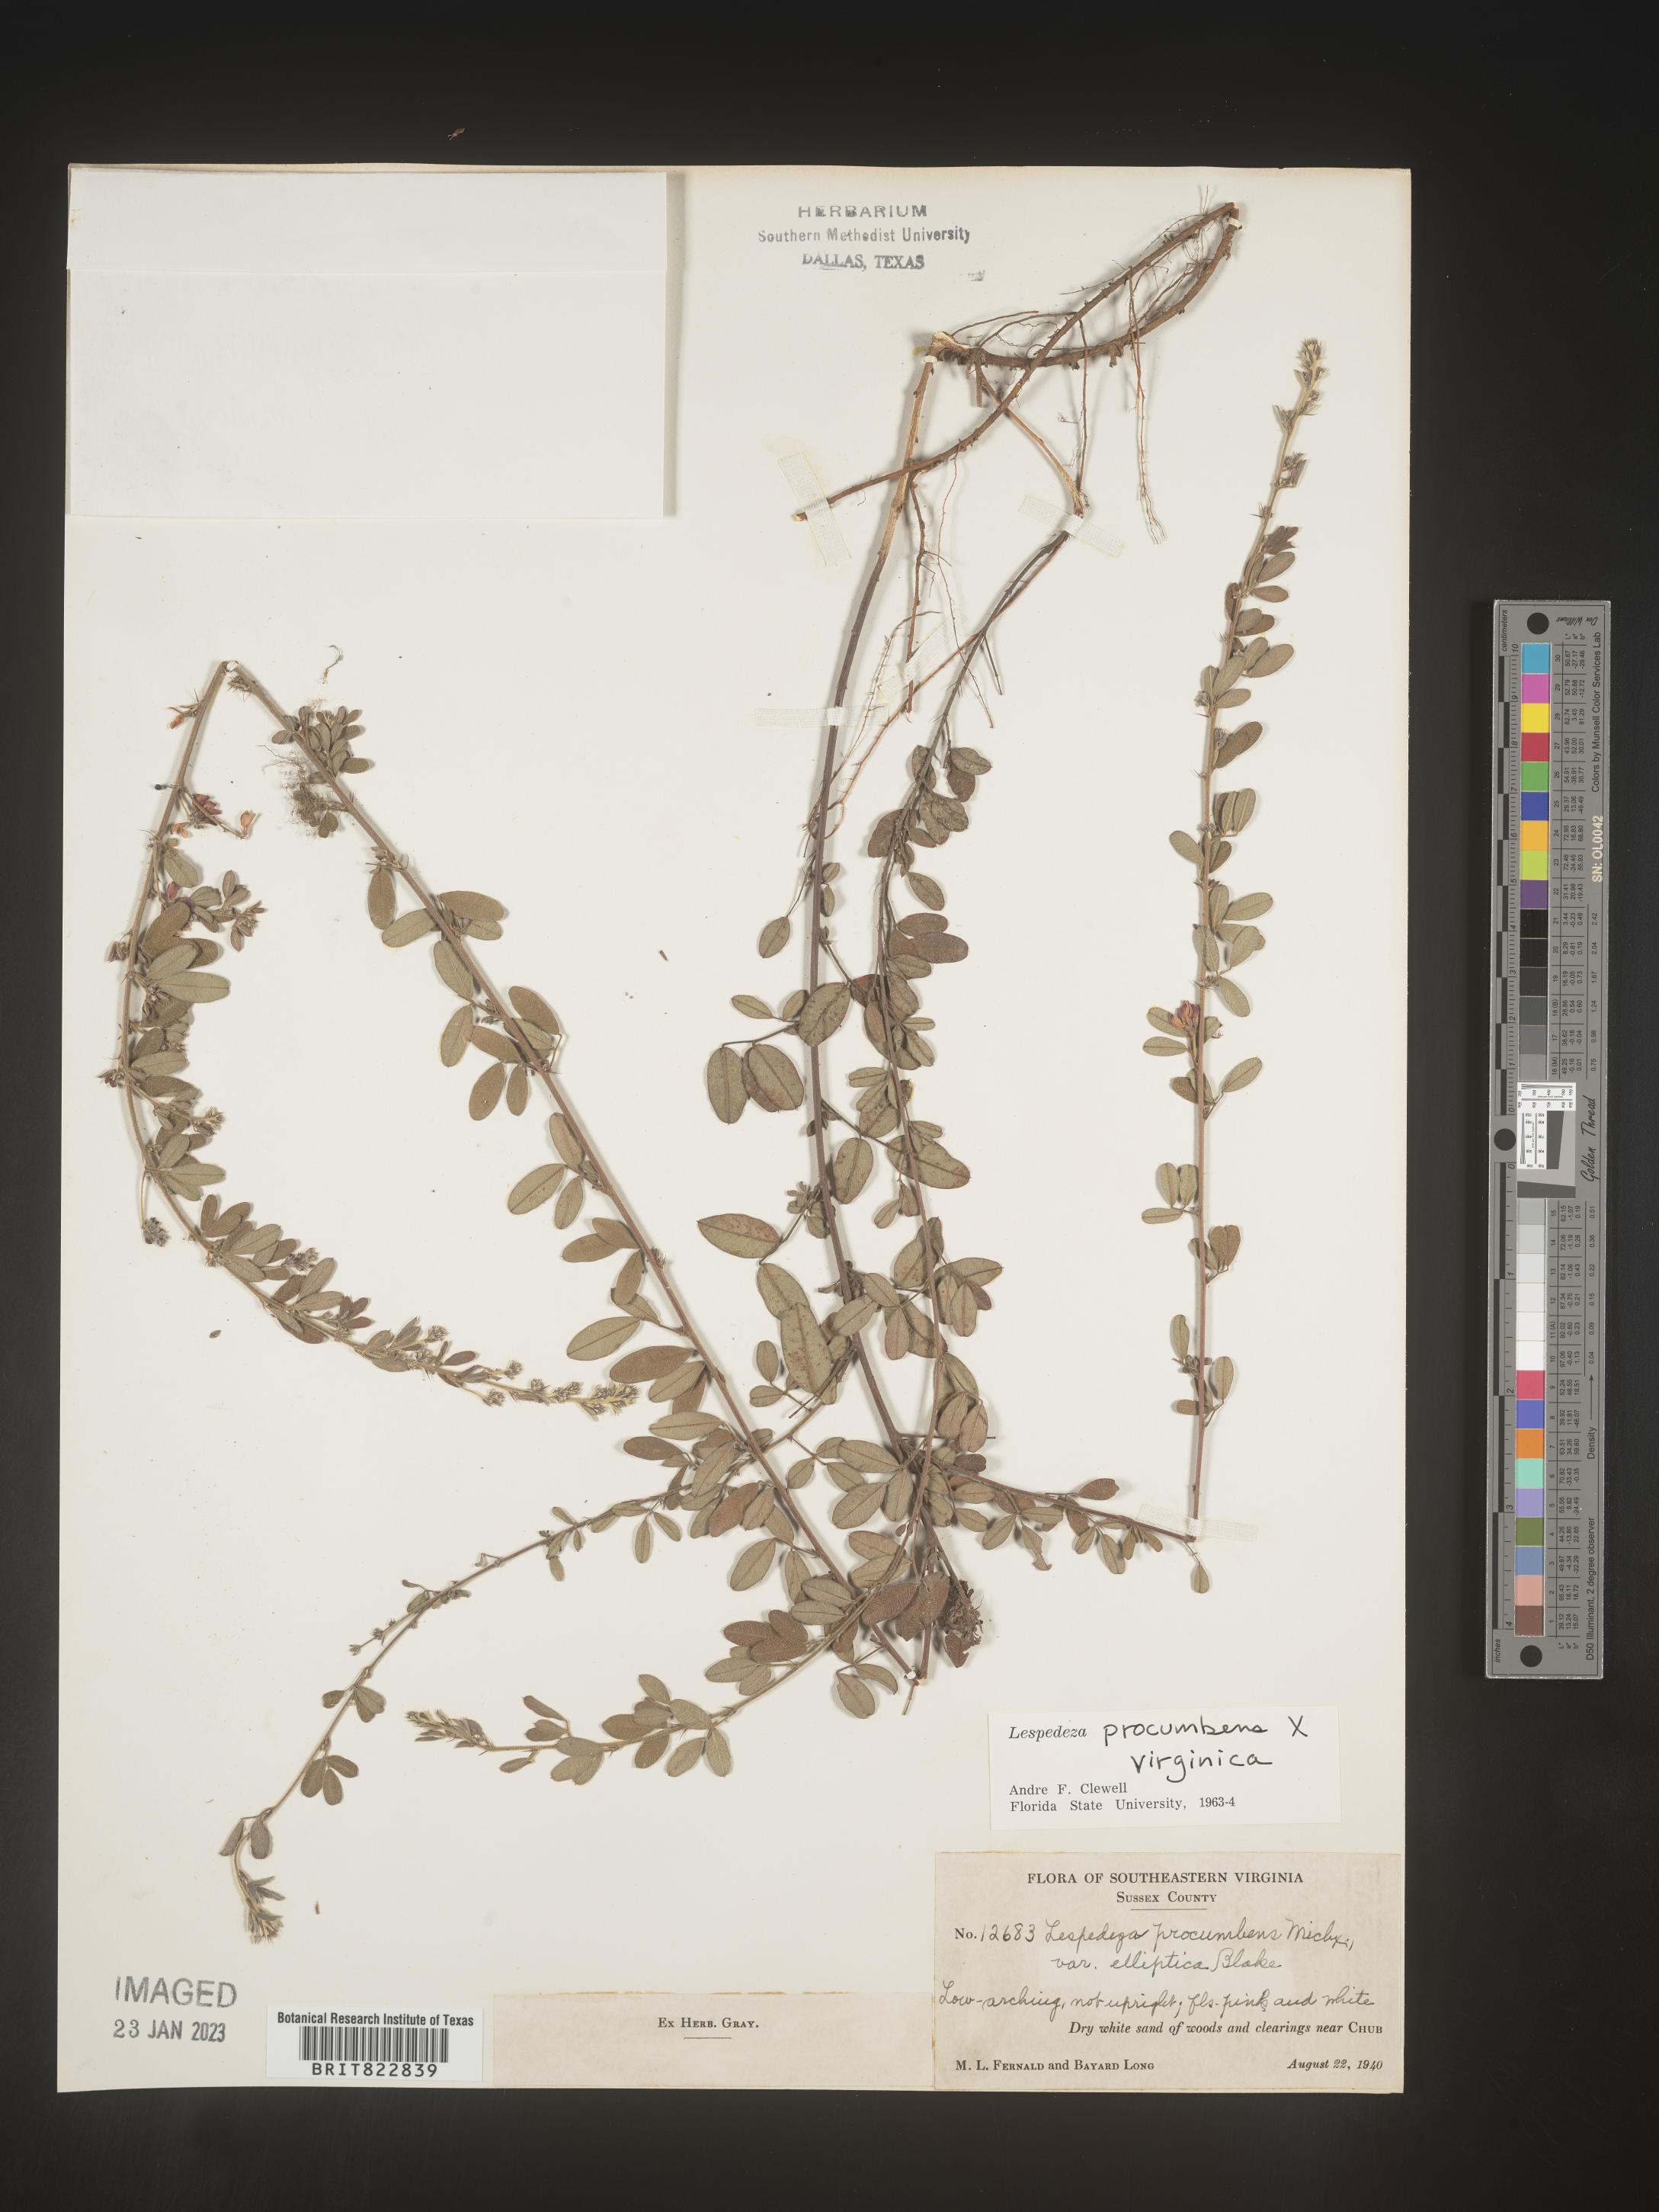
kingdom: Plantae
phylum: Tracheophyta
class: Magnoliopsida
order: Fabales
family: Fabaceae
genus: Lespedeza
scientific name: Lespedeza procumbens
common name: Downy trailing bush-clover
